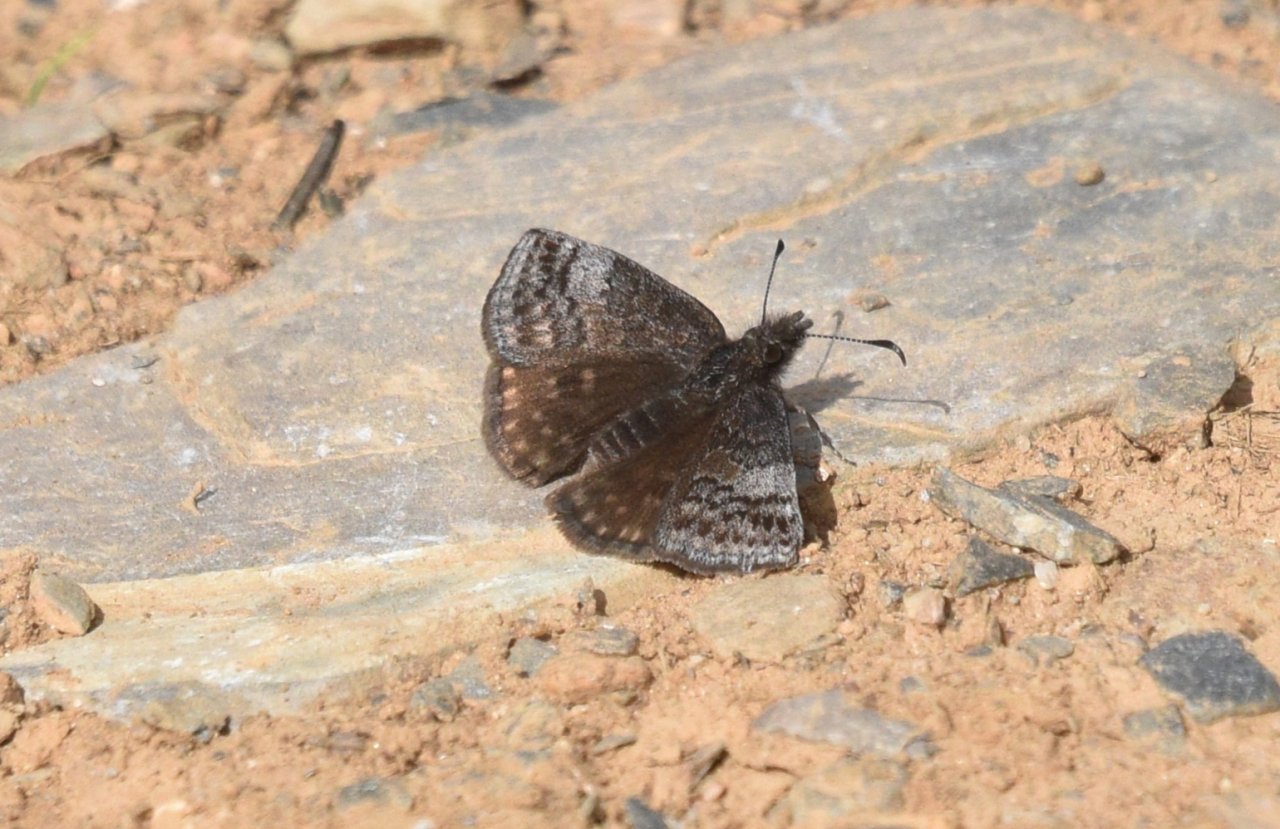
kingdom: Animalia
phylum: Arthropoda
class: Insecta
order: Lepidoptera
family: Hesperiidae
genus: Erynnis
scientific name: Erynnis icelus
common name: Dreamy Duskywing
